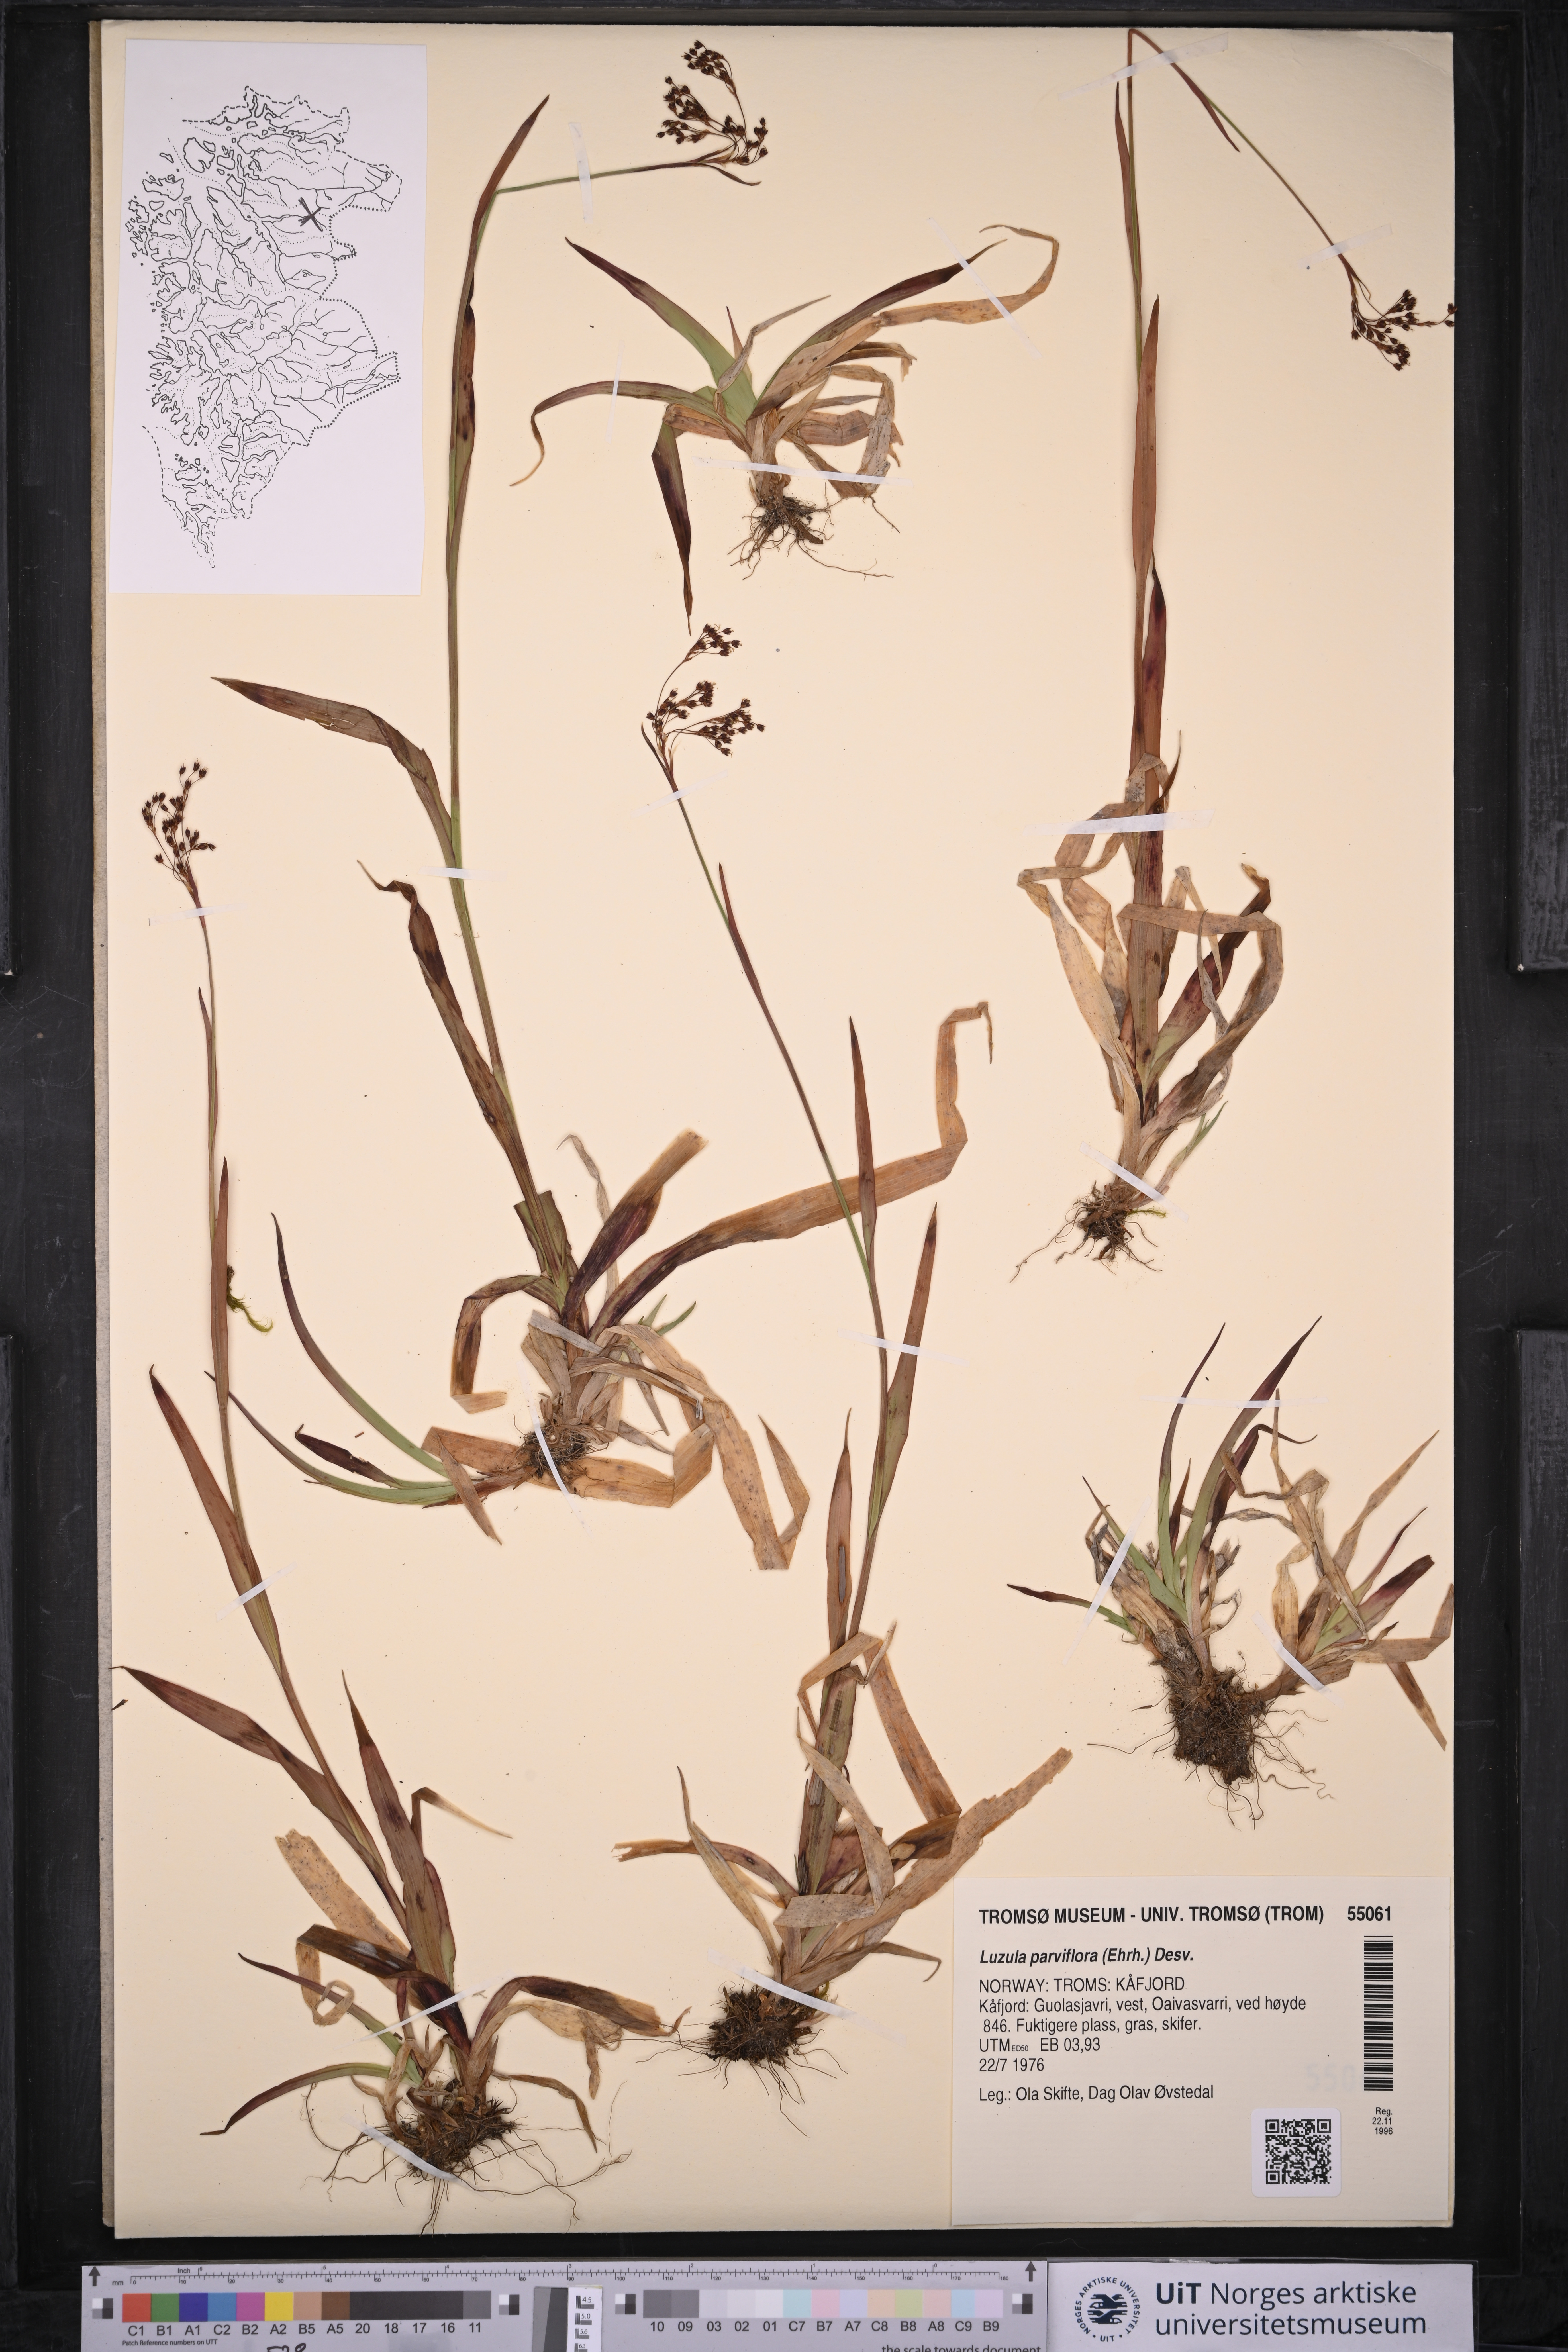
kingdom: Plantae
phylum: Tracheophyta
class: Liliopsida
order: Poales
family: Juncaceae
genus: Luzula
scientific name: Luzula parviflora
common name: Millet woodrush
